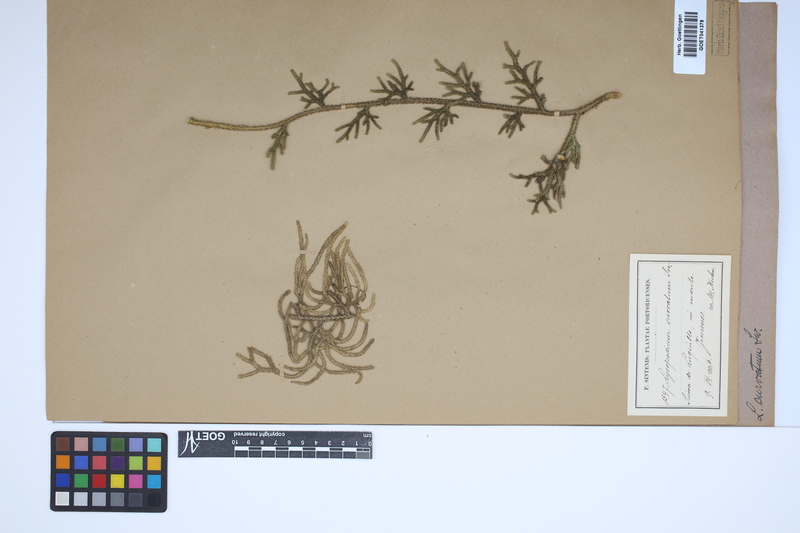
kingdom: Plantae
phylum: Tracheophyta
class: Lycopodiopsida
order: Lycopodiales
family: Lycopodiaceae
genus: Palhinhaea
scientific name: Palhinhaea curvata
